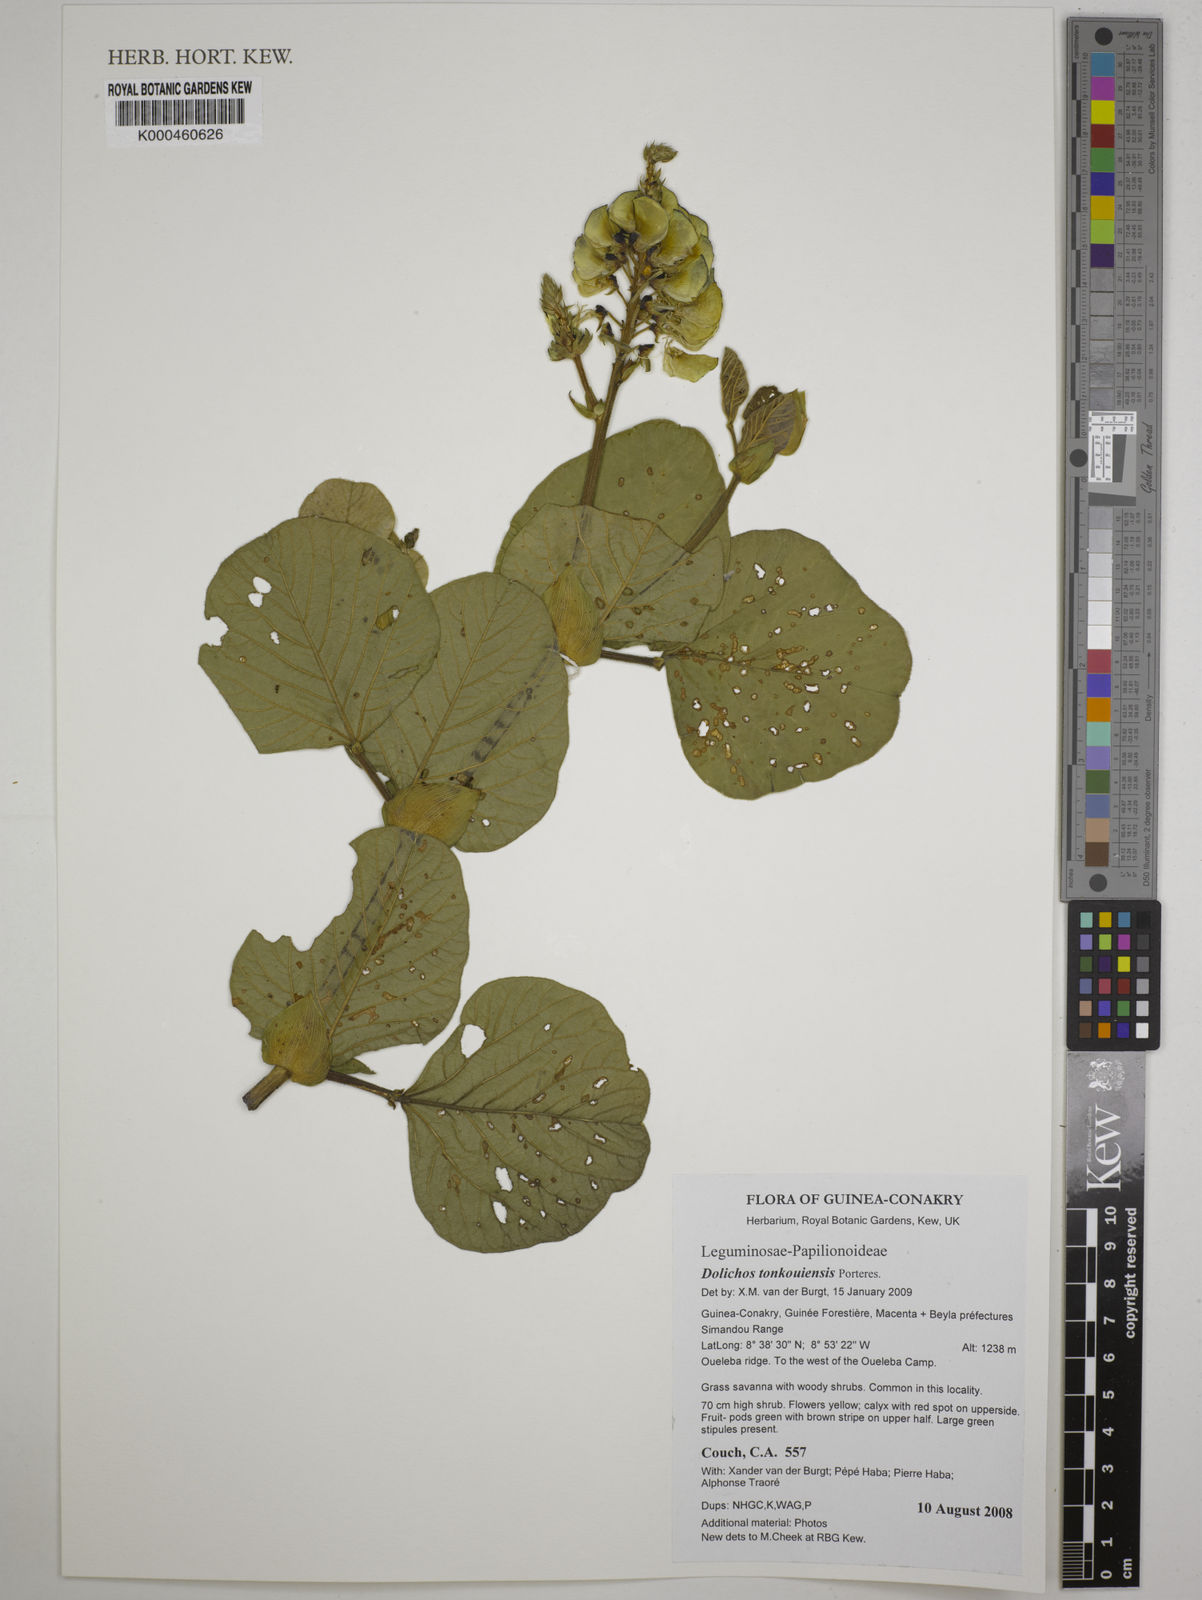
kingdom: Plantae
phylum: Tracheophyta
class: Magnoliopsida
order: Fabales
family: Fabaceae
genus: Dolichos
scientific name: Dolichos tonkouiensis
